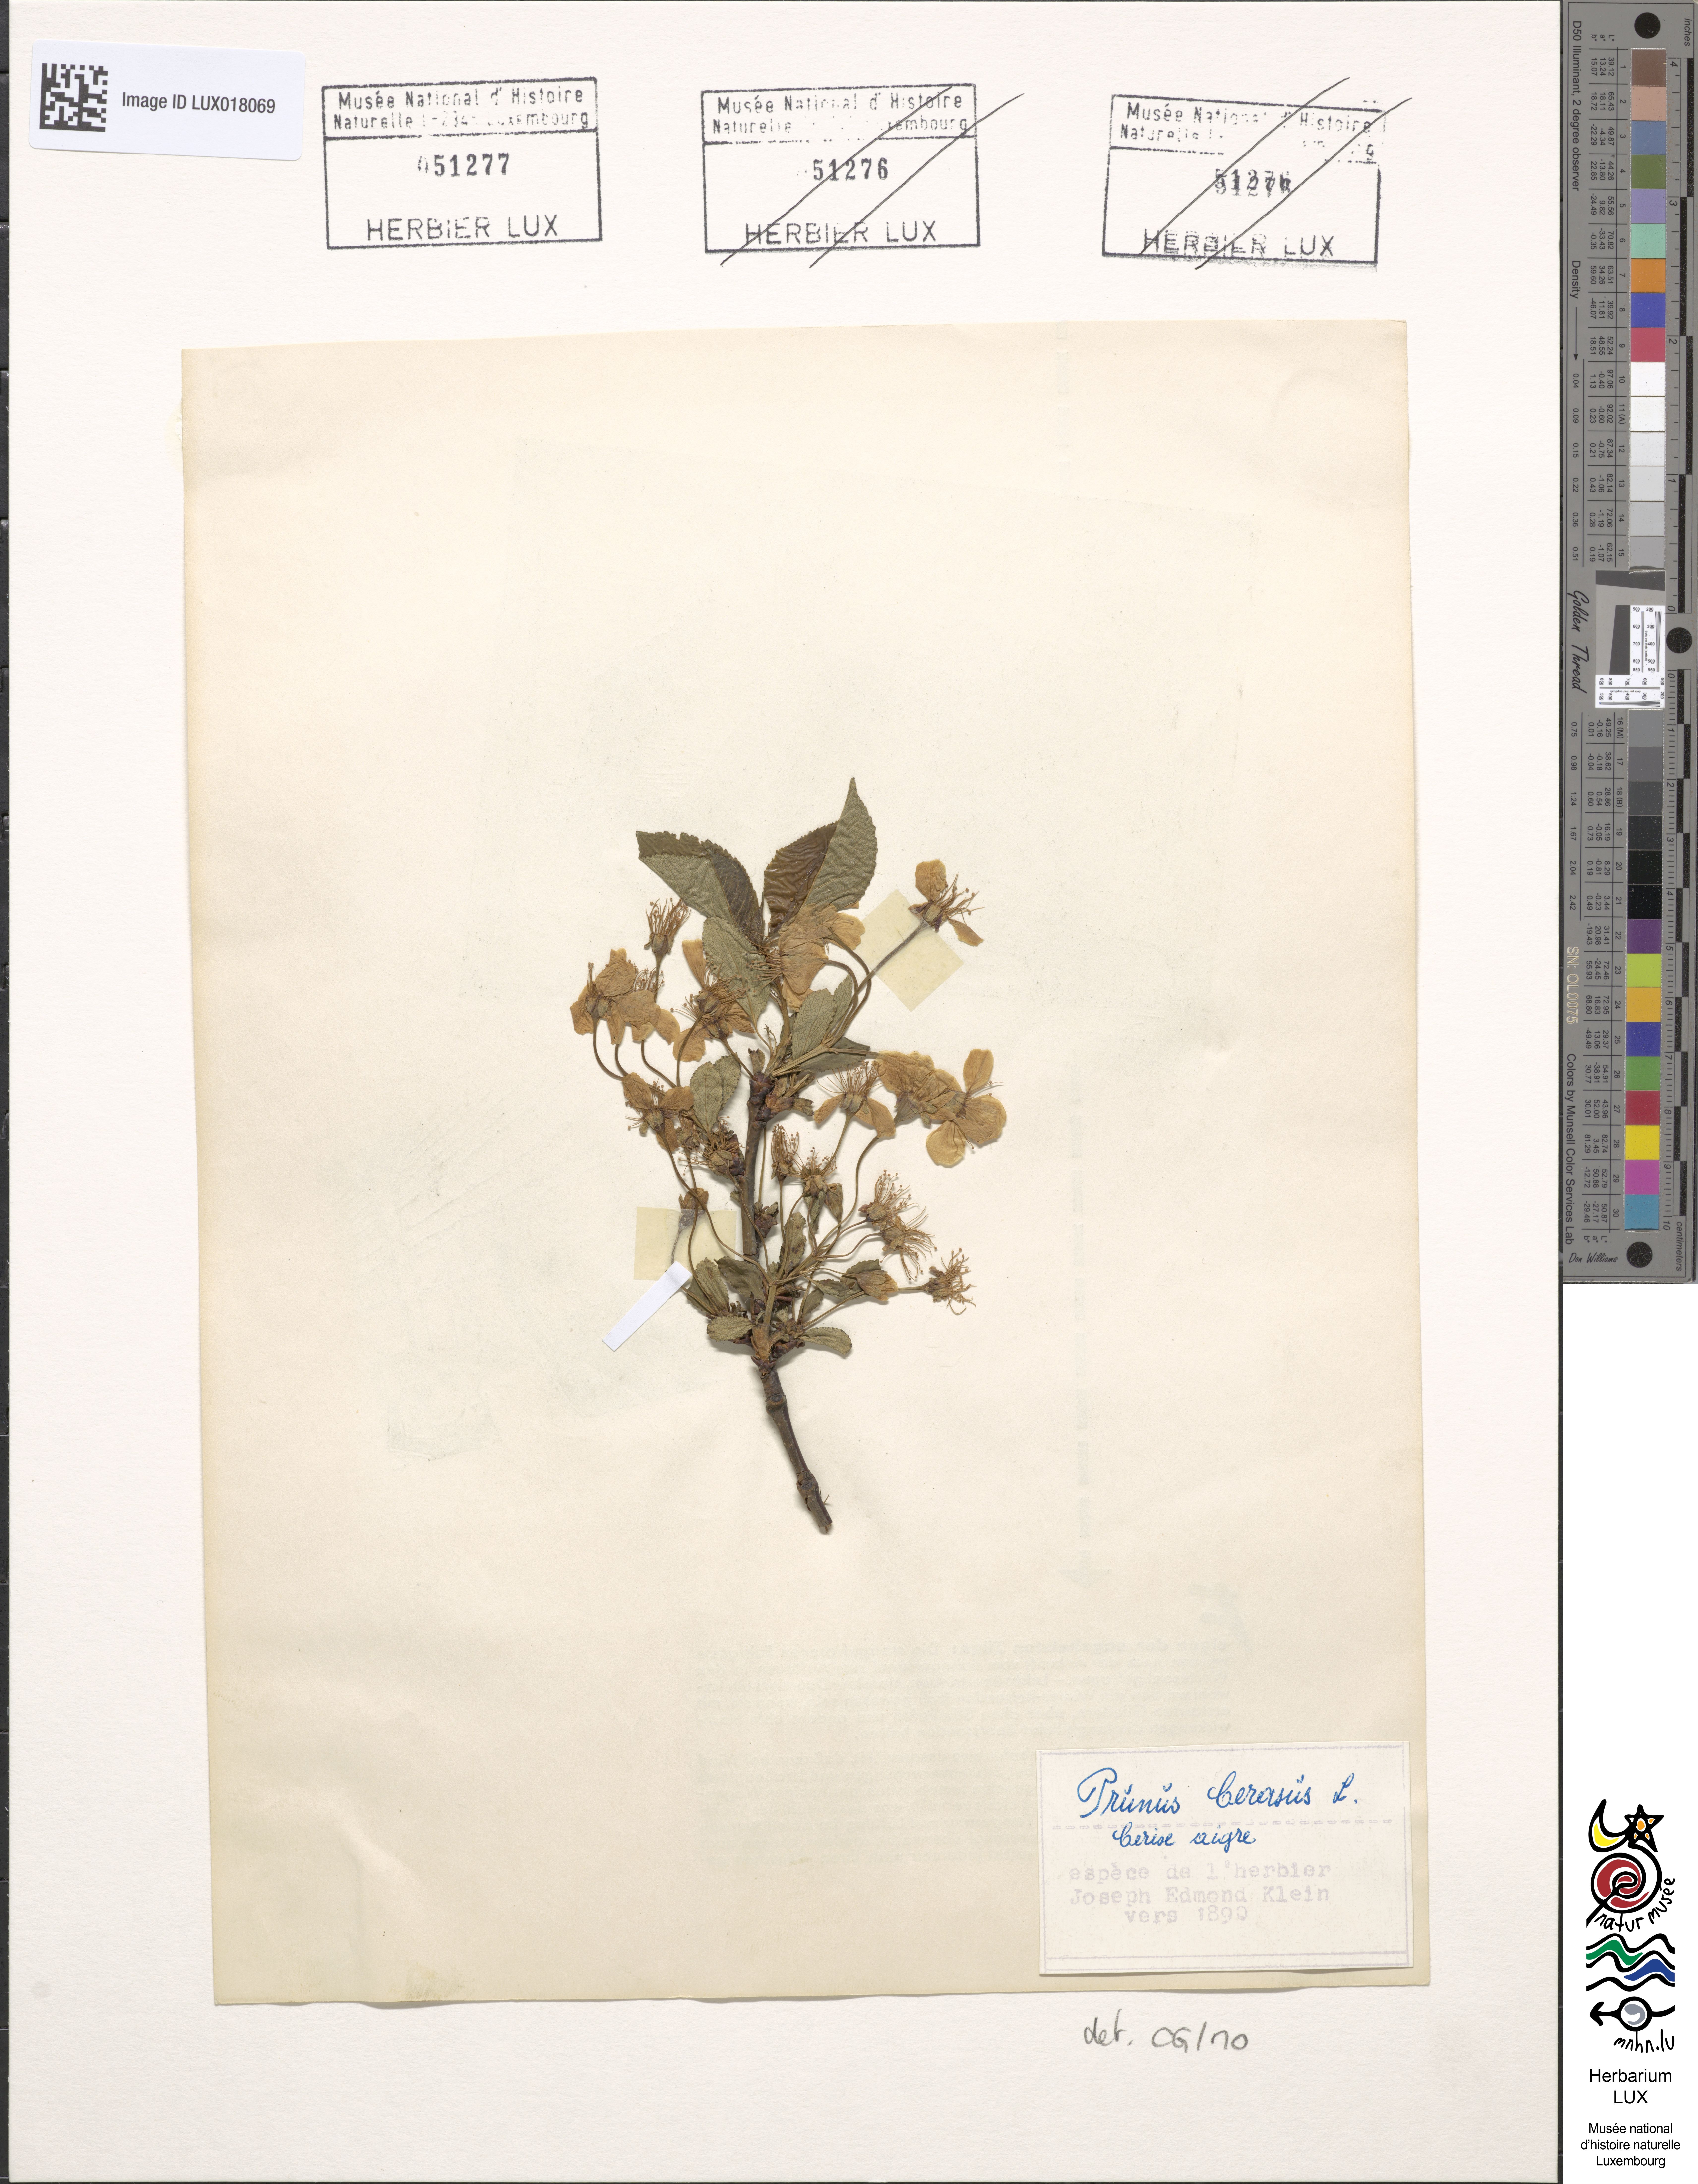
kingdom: Plantae
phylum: Tracheophyta
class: Magnoliopsida
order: Rosales
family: Rosaceae
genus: Prunus
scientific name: Prunus cerasus
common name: Morello cherry
